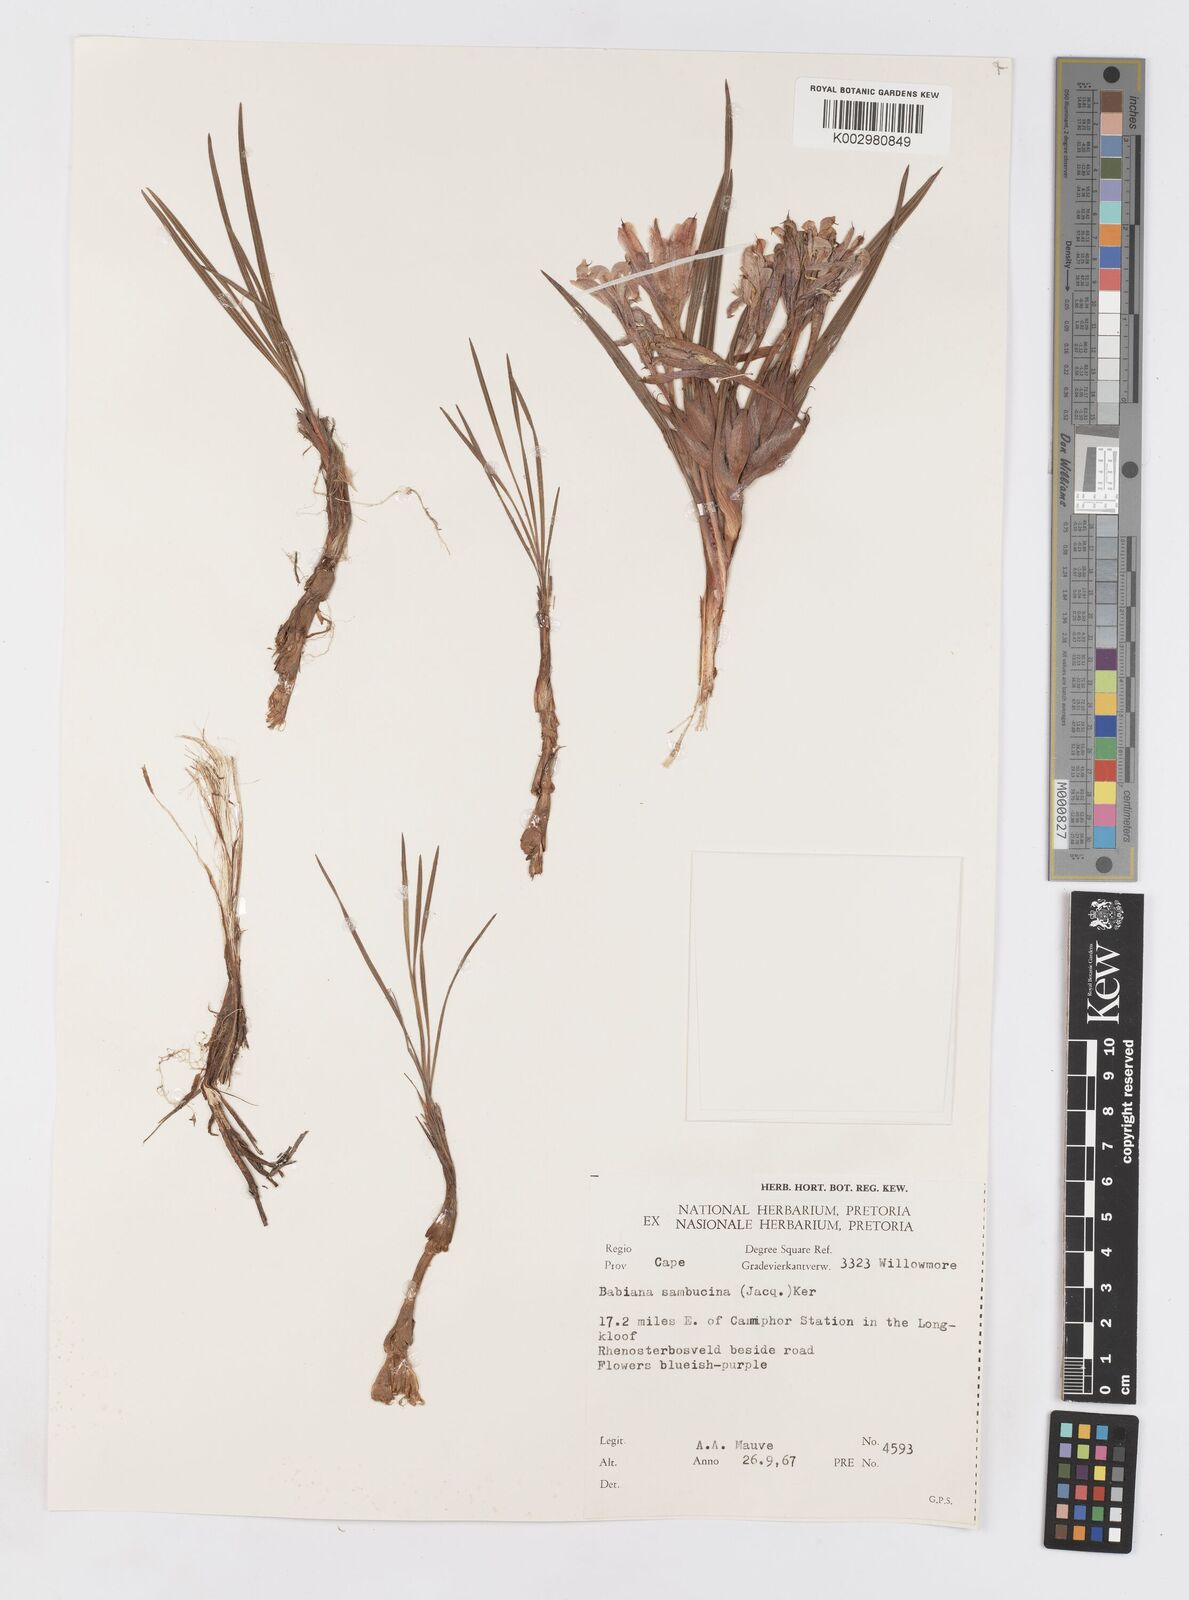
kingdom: Plantae
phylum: Tracheophyta
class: Liliopsida
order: Asparagales
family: Iridaceae
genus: Babiana
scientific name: Babiana sambucina
